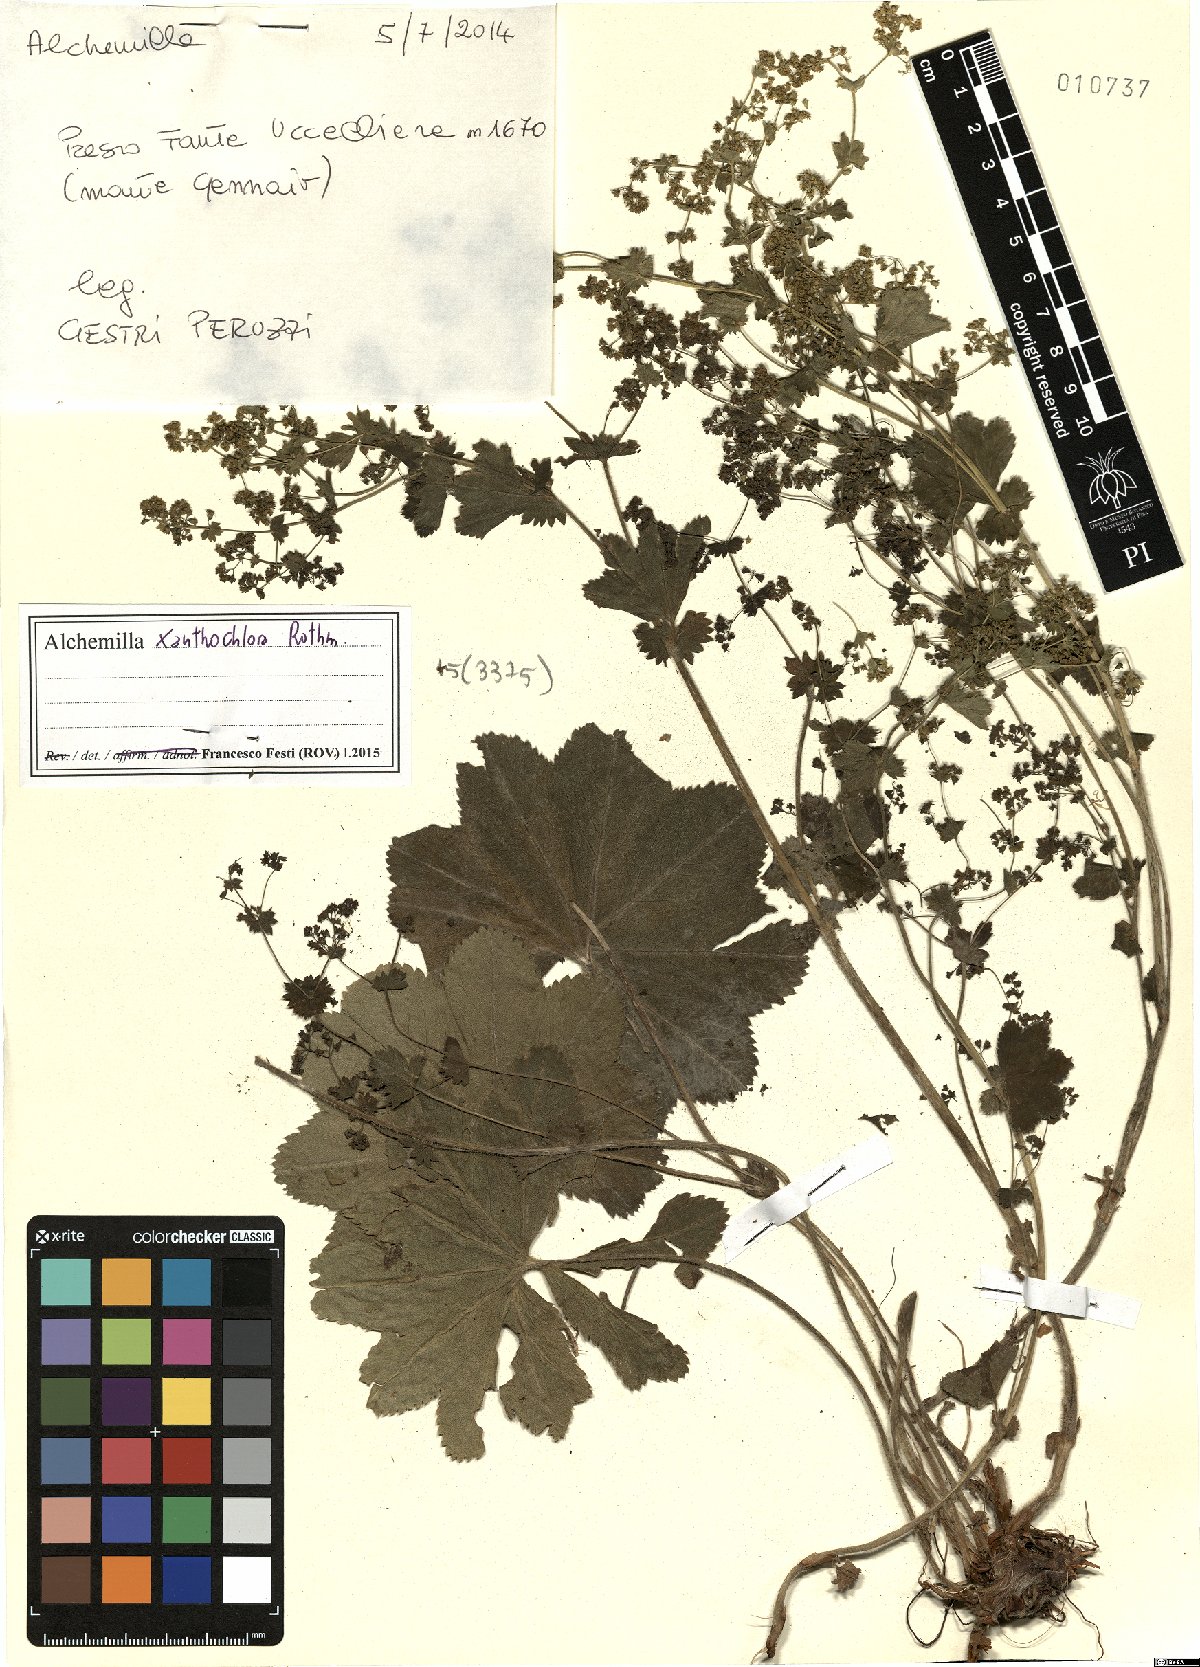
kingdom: Plantae
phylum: Tracheophyta
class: Magnoliopsida
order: Rosales
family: Rosaceae
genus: Alchemilla
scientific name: Alchemilla xanthochlora
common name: Intermediate lady's-mantle
